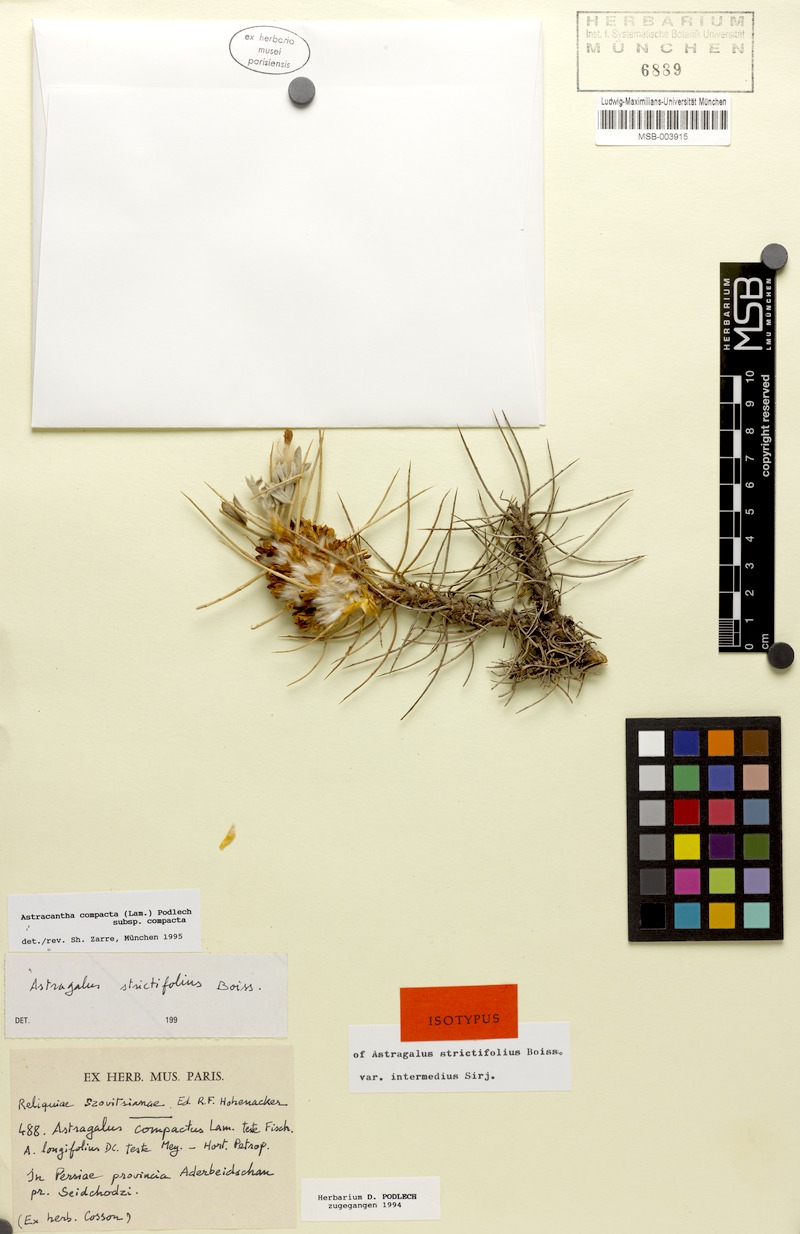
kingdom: Plantae
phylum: Tracheophyta
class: Magnoliopsida
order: Fabales
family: Fabaceae
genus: Astragalus
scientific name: Astragalus compactus
